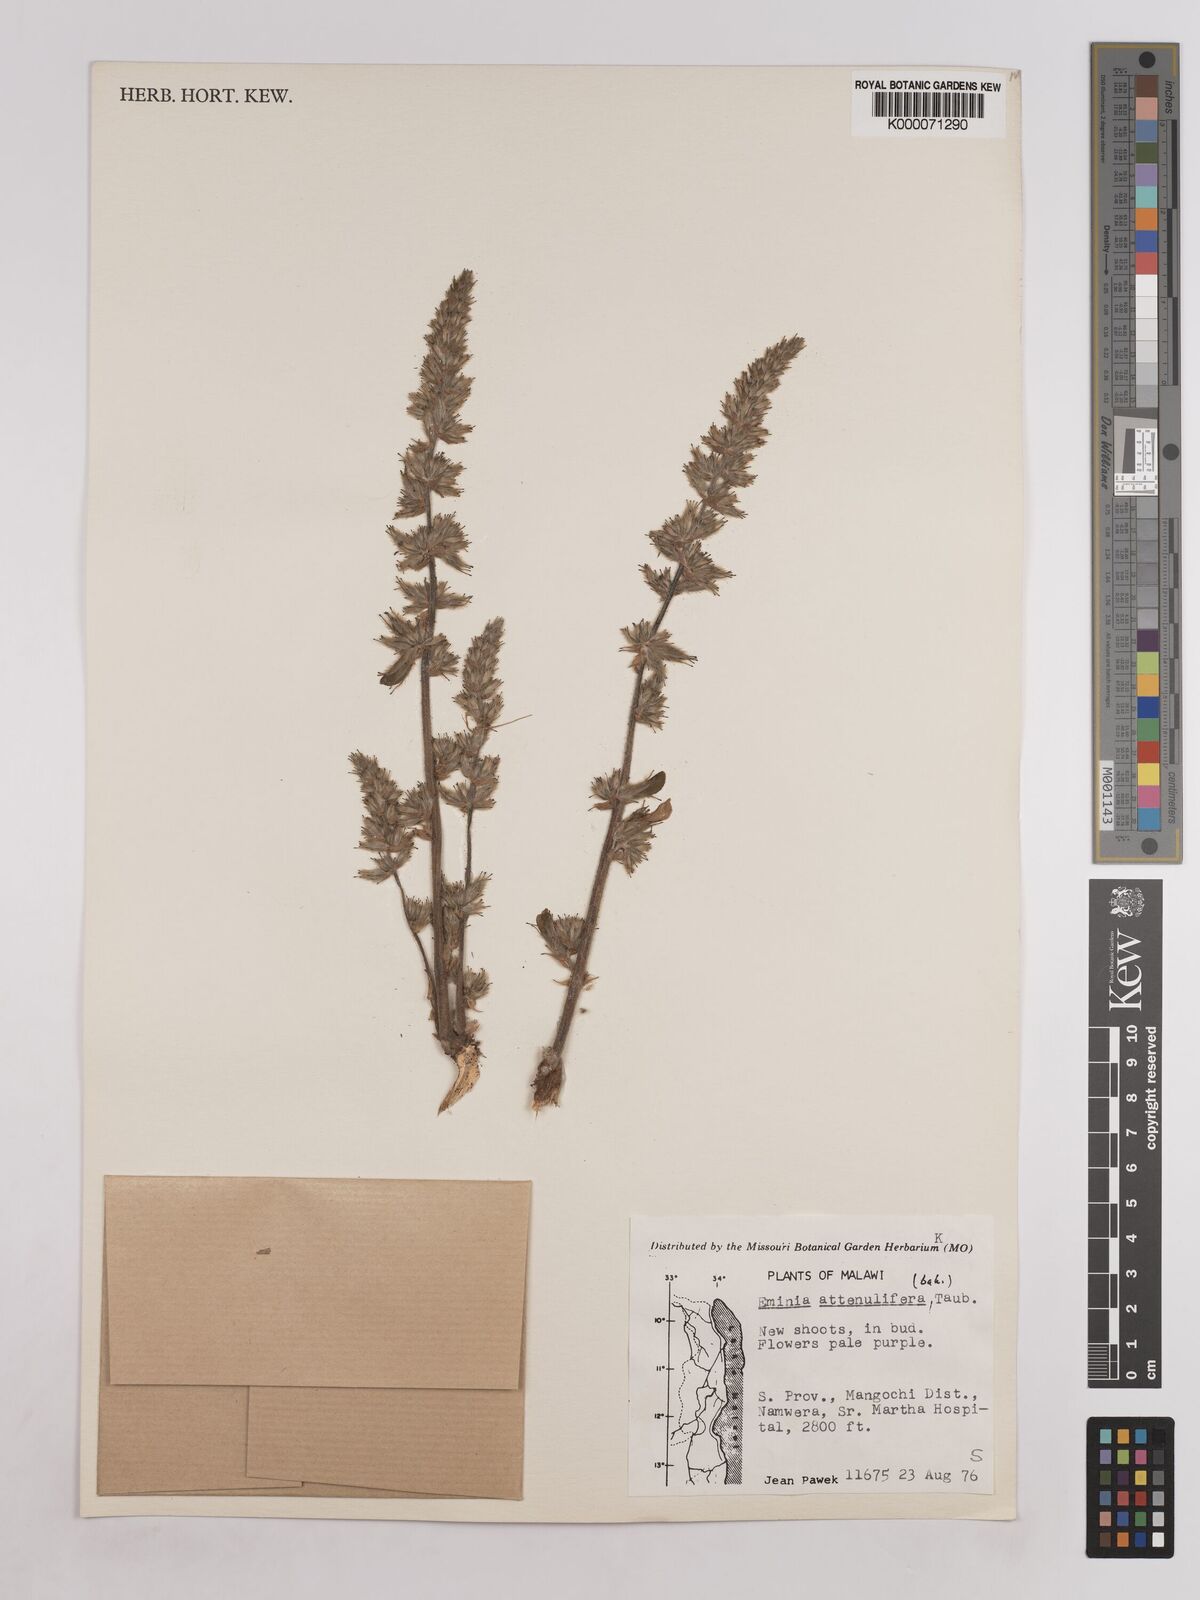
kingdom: Plantae
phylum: Tracheophyta
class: Magnoliopsida
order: Fabales
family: Fabaceae
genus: Eminia
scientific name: Eminia antennulifera
